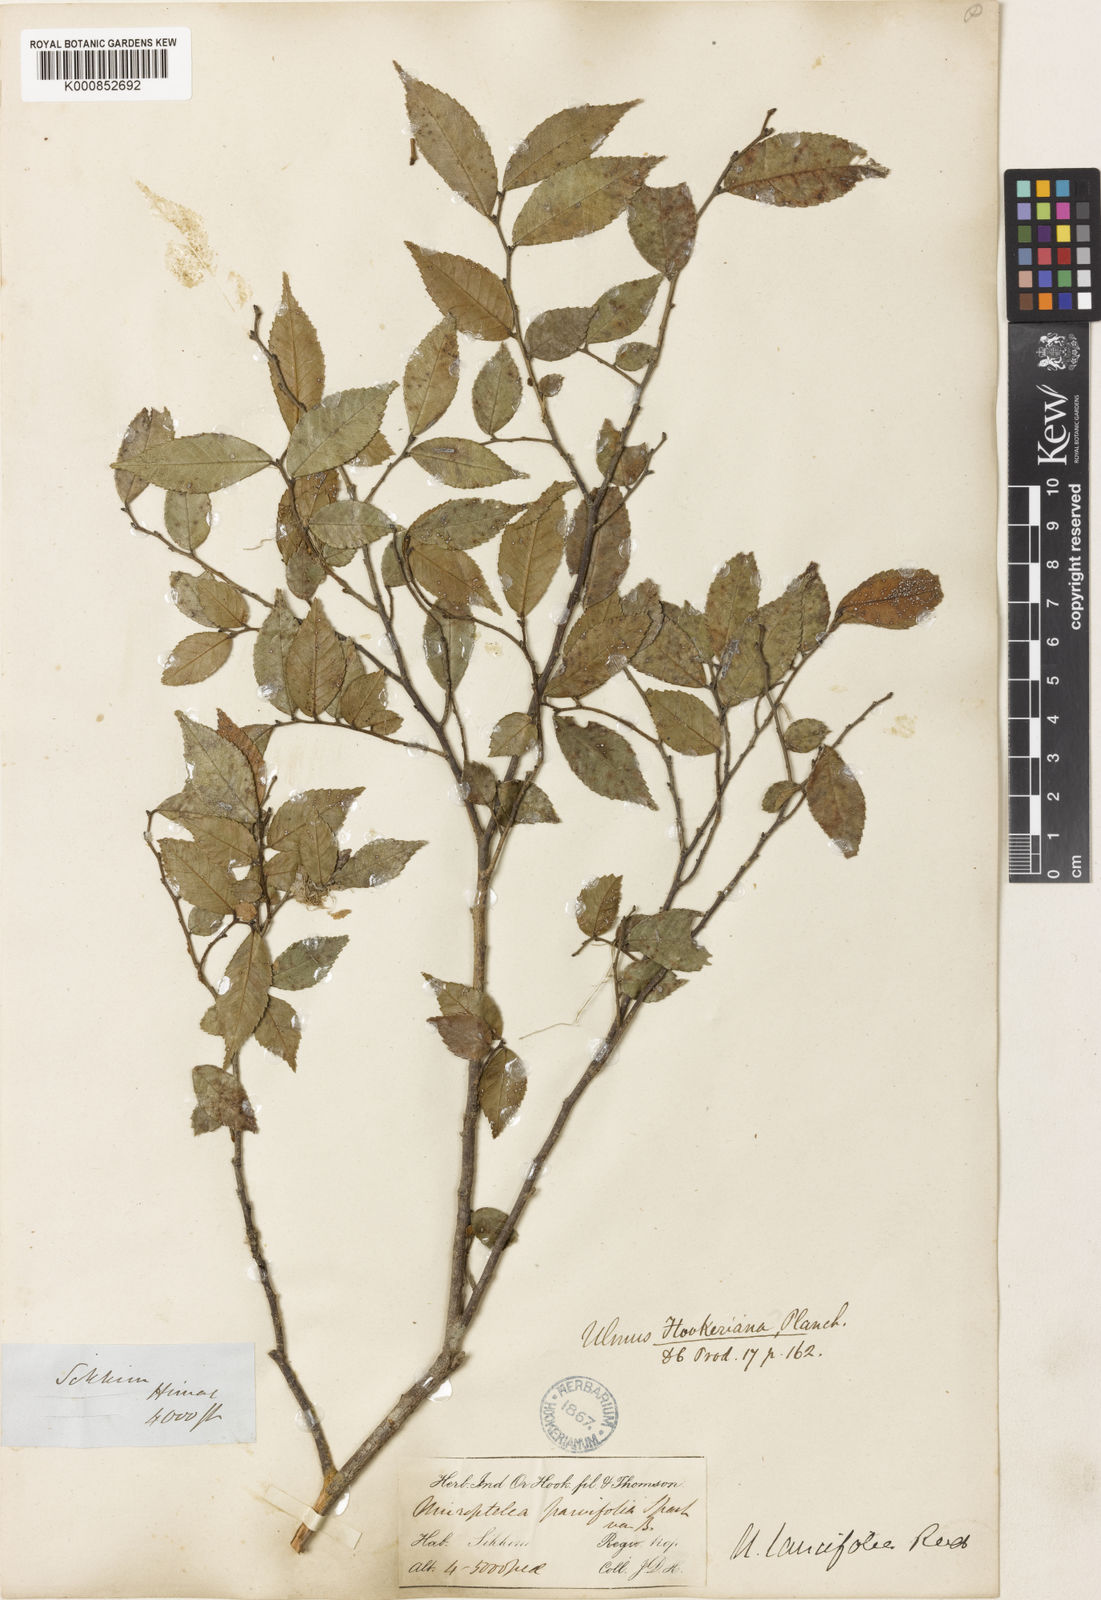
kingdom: Plantae
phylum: Tracheophyta
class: Magnoliopsida
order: Rosales
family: Ulmaceae
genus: Ulmus
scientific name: Ulmus
